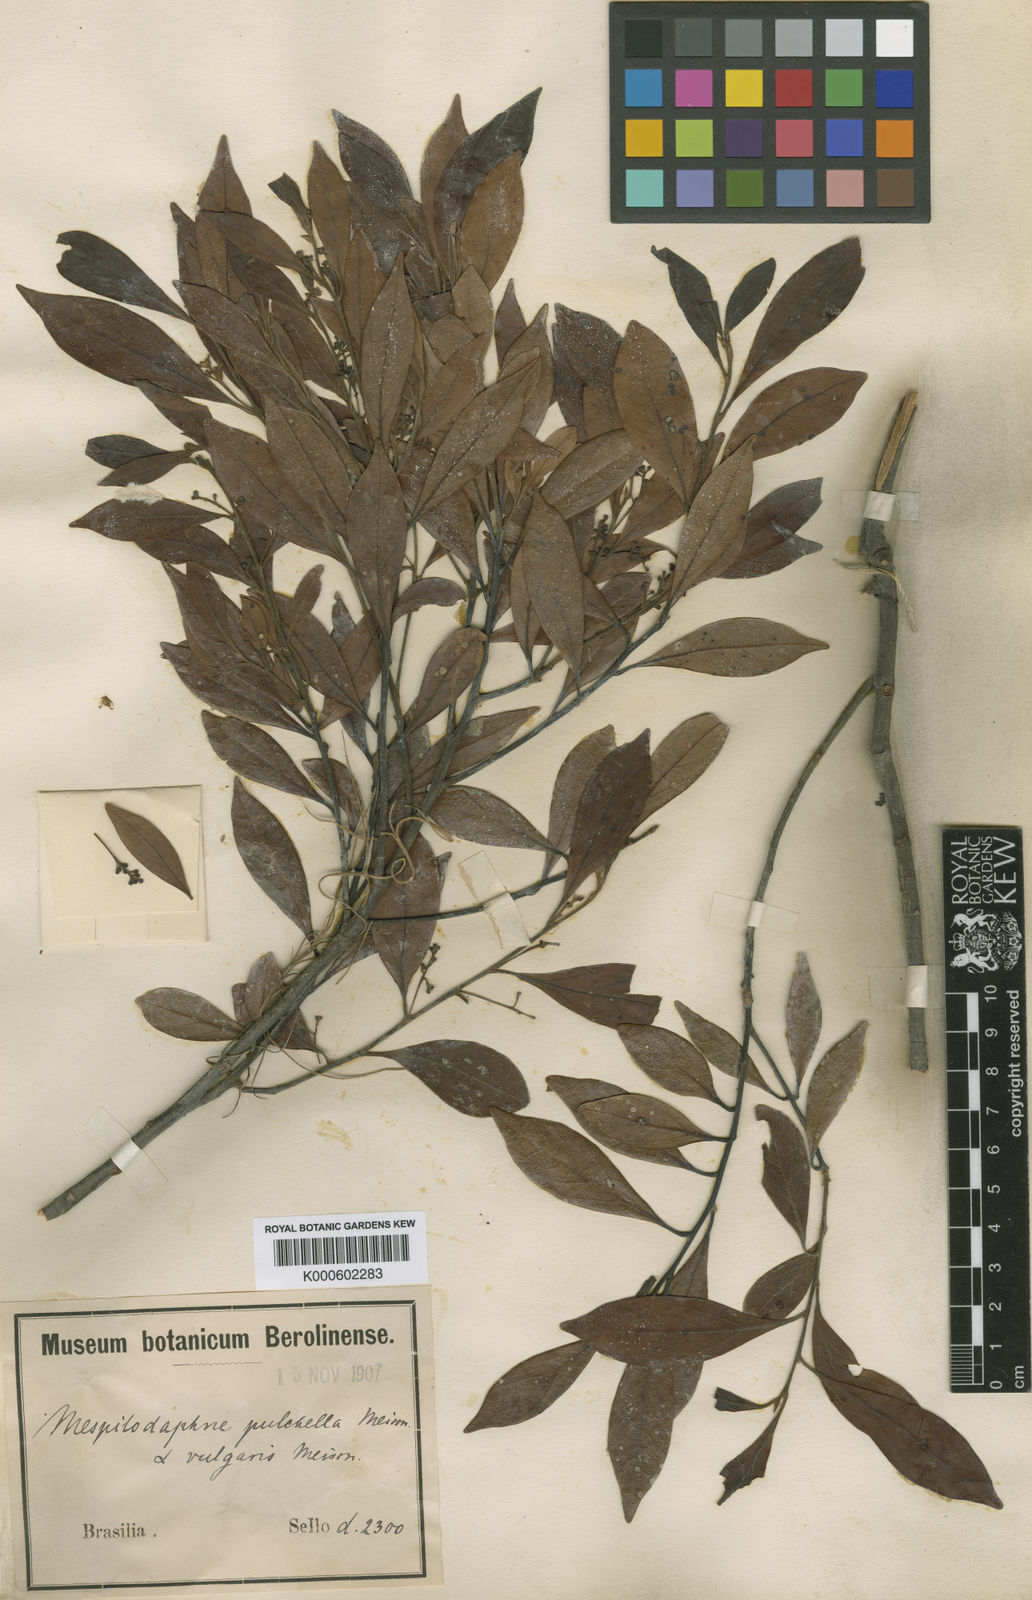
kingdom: Plantae
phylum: Tracheophyta
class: Magnoliopsida
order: Laurales
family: Lauraceae
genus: Mespilodaphne
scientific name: Mespilodaphne pulchella
